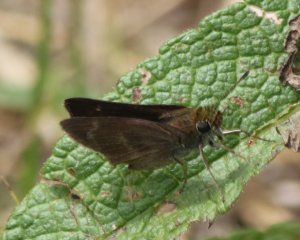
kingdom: Animalia
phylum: Arthropoda
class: Insecta
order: Lepidoptera
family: Hesperiidae
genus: Euphyes
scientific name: Euphyes vestris
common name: Dun Skipper
